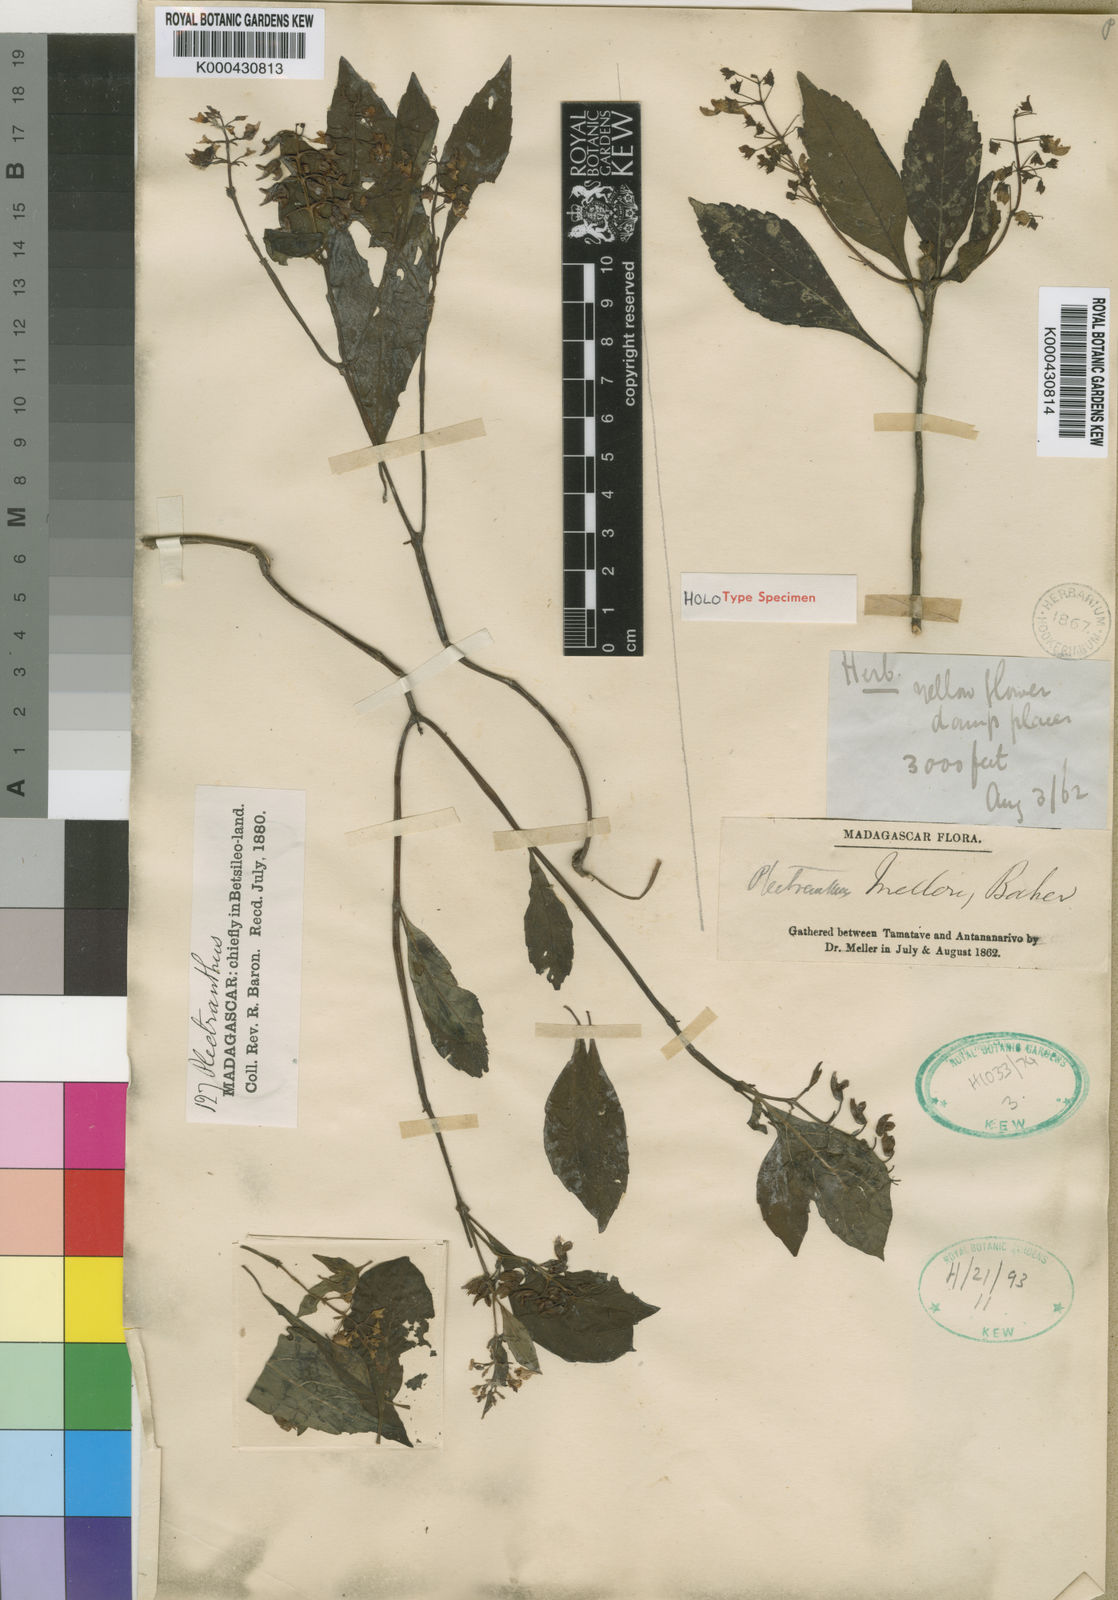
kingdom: Plantae
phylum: Tracheophyta
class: Magnoliopsida
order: Lamiales
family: Lamiaceae
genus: Coleus
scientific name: Coleus melleri
